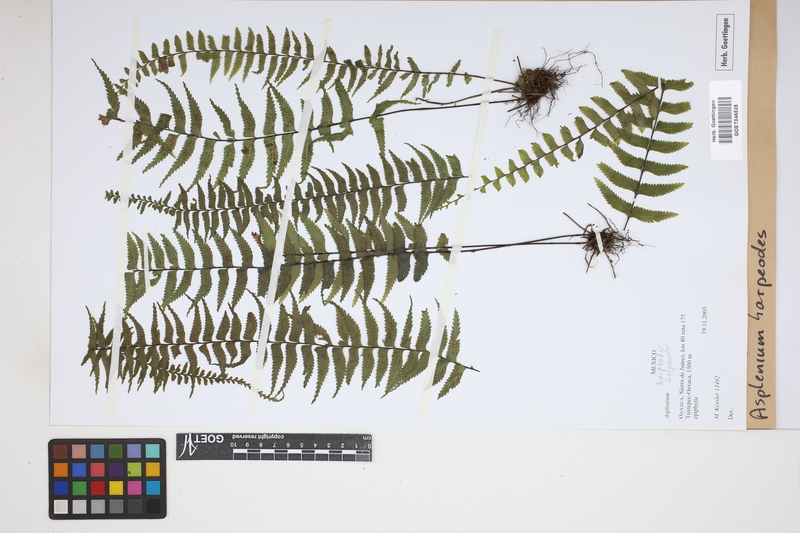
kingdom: Plantae
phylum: Tracheophyta
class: Polypodiopsida
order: Polypodiales
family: Aspleniaceae
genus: Asplenium
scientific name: Asplenium harpeodes
